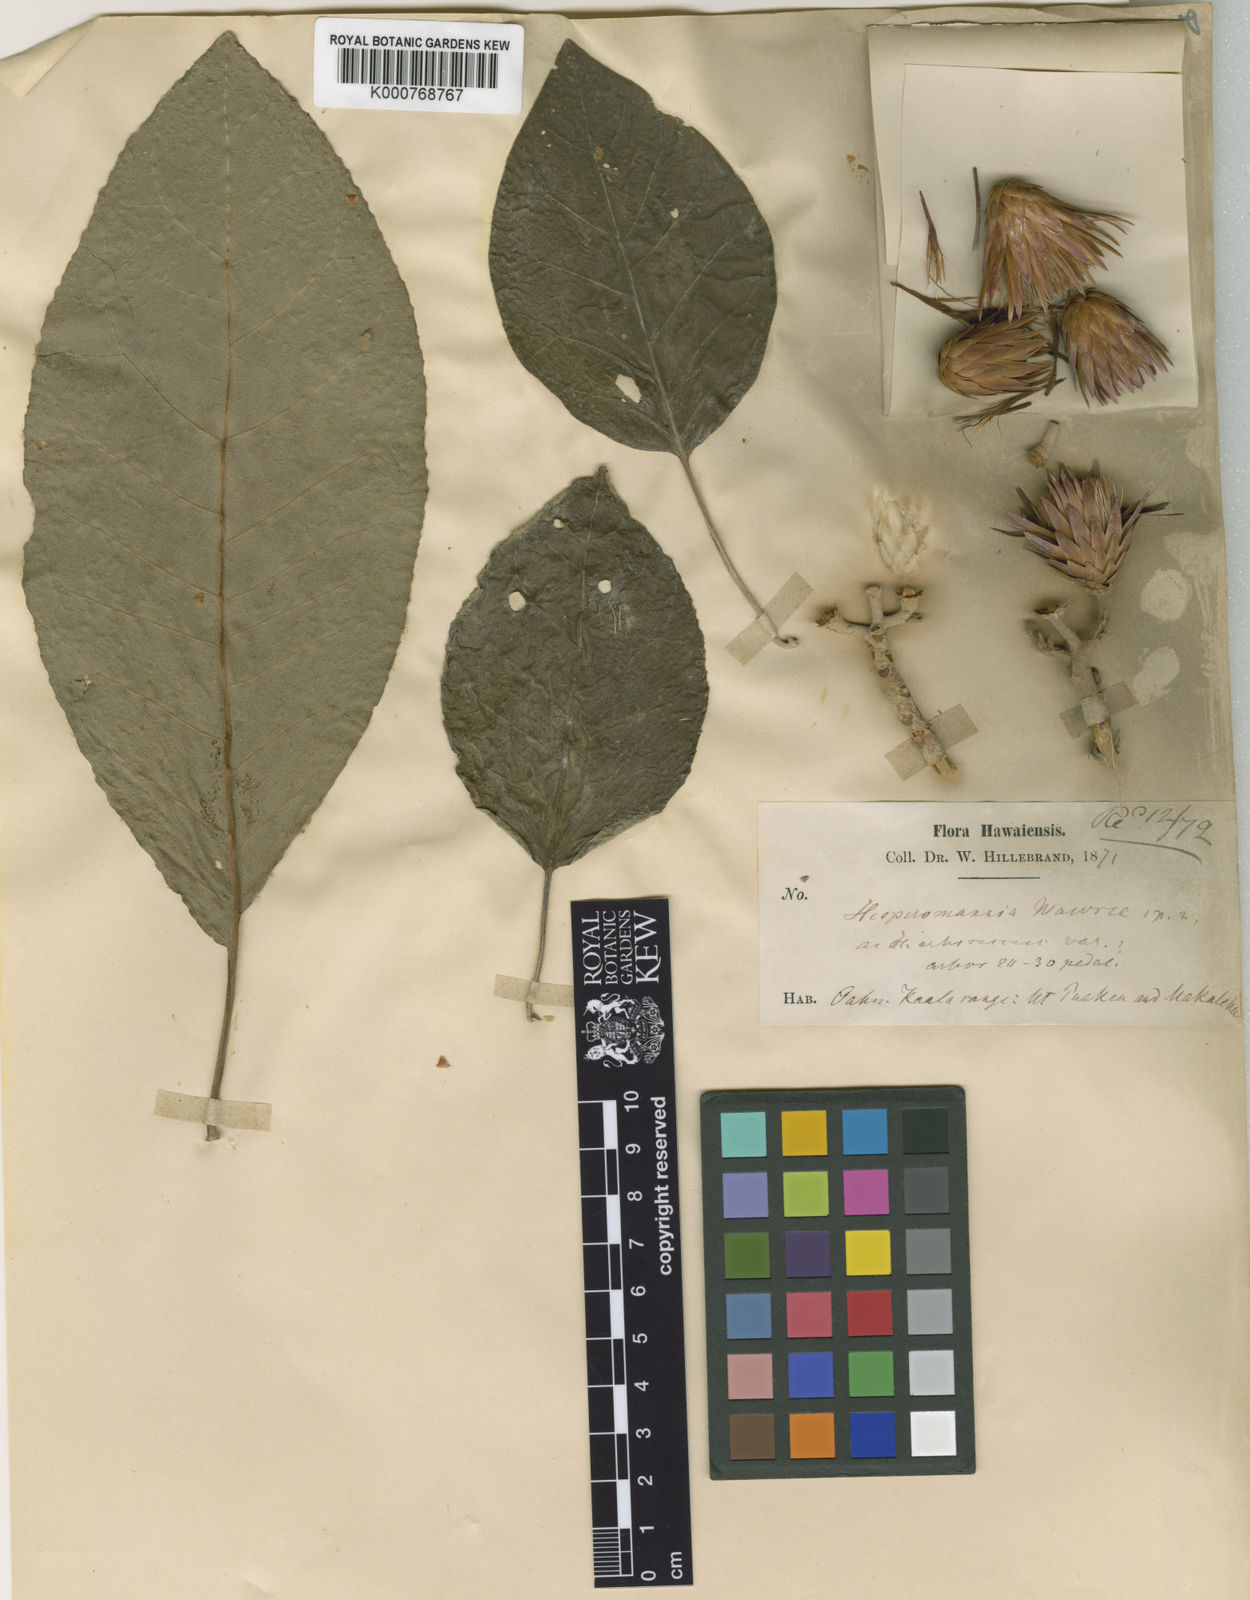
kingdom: Plantae
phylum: Tracheophyta
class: Magnoliopsida
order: Asterales
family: Asteraceae
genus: Hesperomannia
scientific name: Hesperomannia
